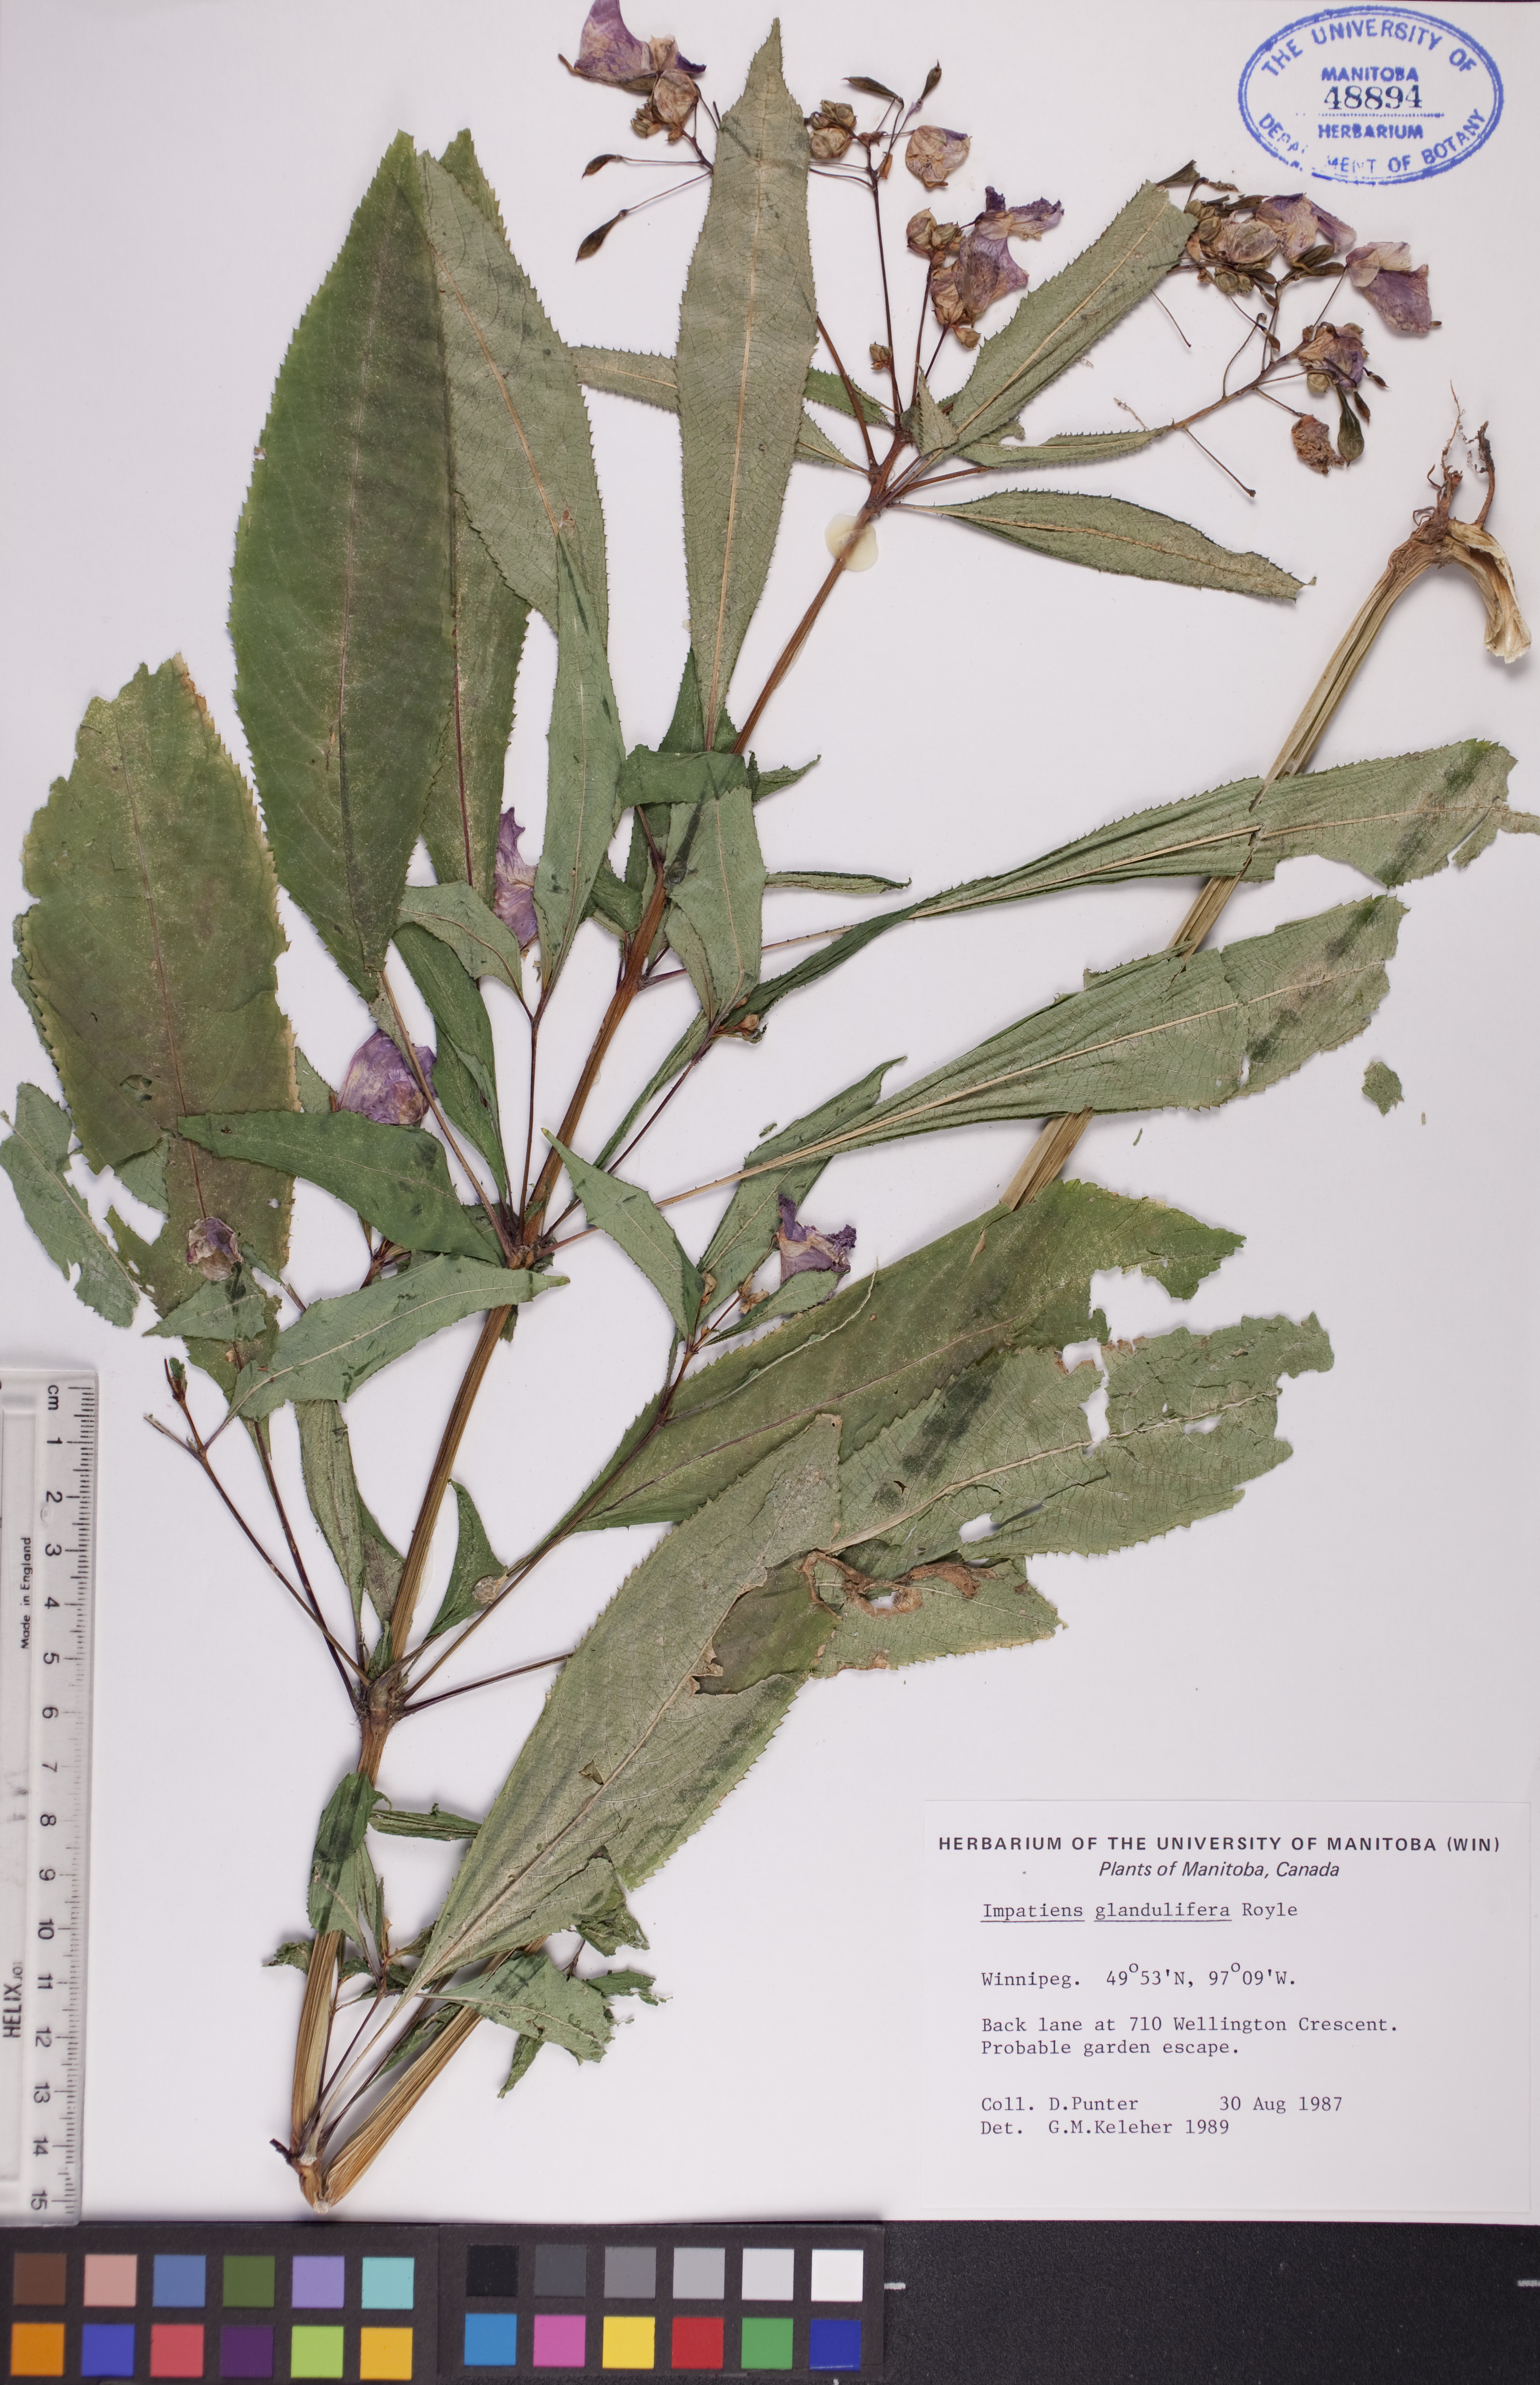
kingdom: Plantae
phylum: Tracheophyta
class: Magnoliopsida
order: Ericales
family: Balsaminaceae
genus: Impatiens
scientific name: Impatiens glandulifera
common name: Himalayan balsam
